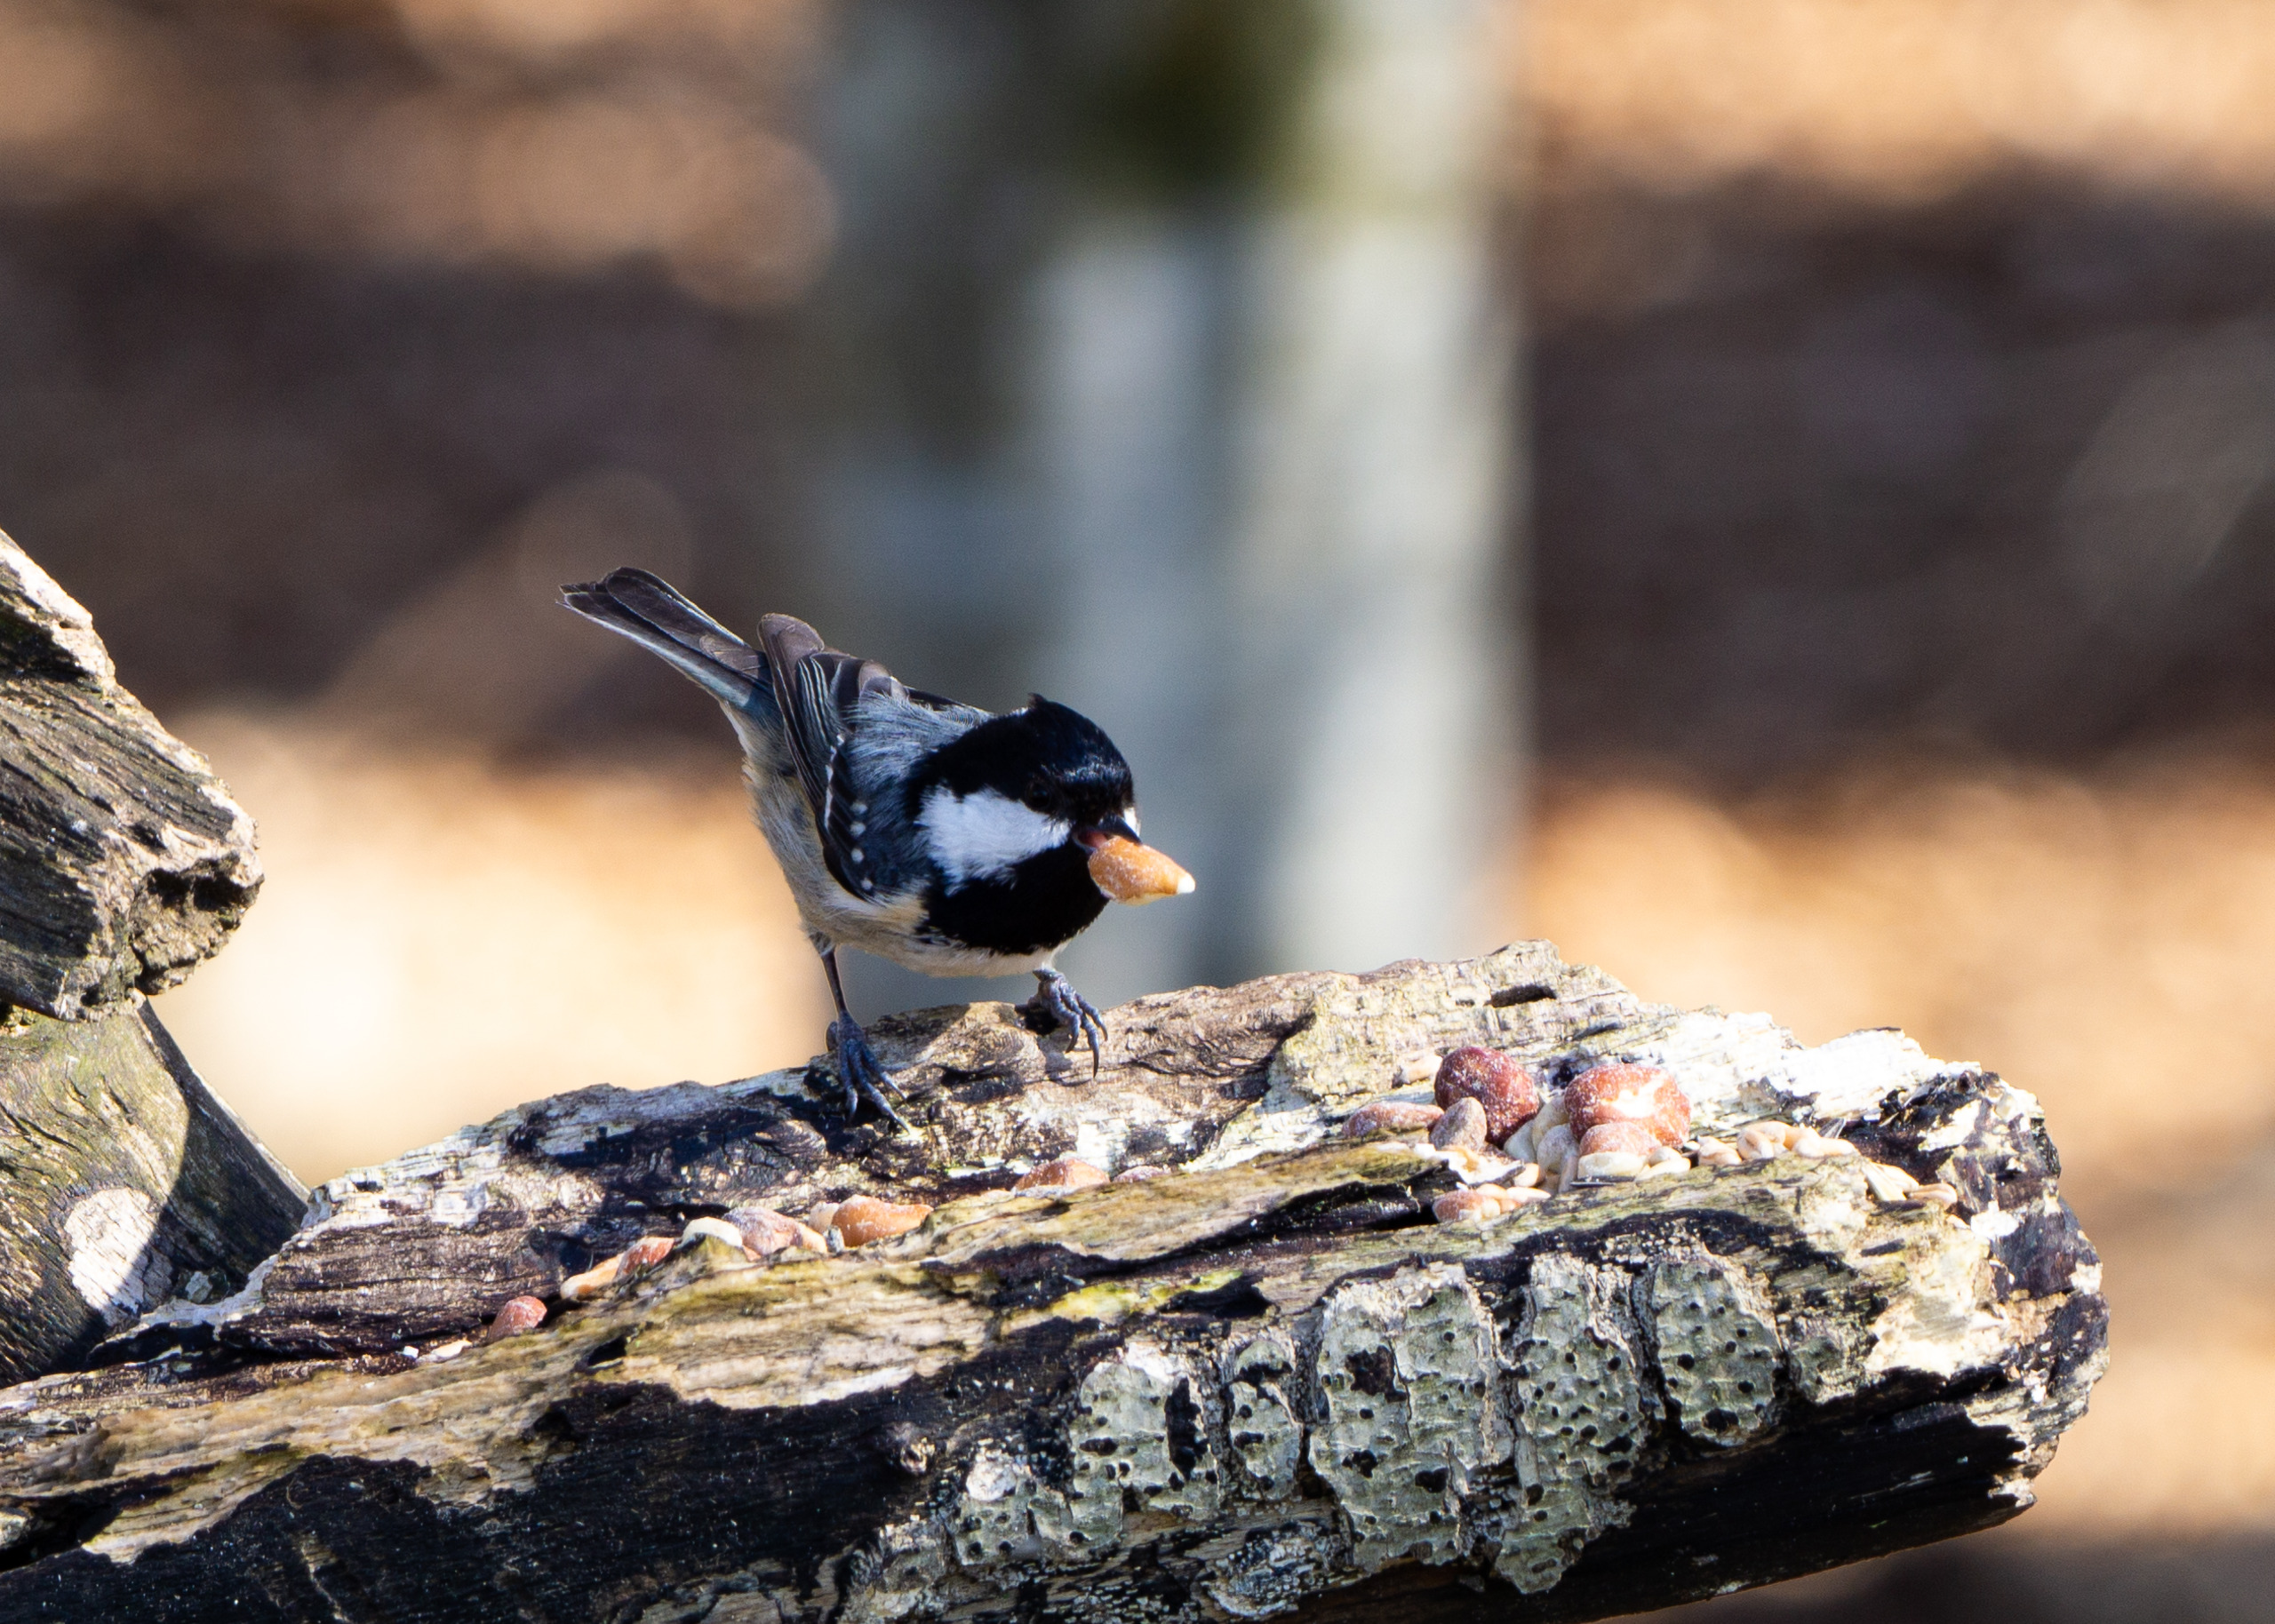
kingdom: Animalia
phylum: Chordata
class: Aves
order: Passeriformes
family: Paridae
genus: Periparus
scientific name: Periparus ater
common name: Sortmejse
